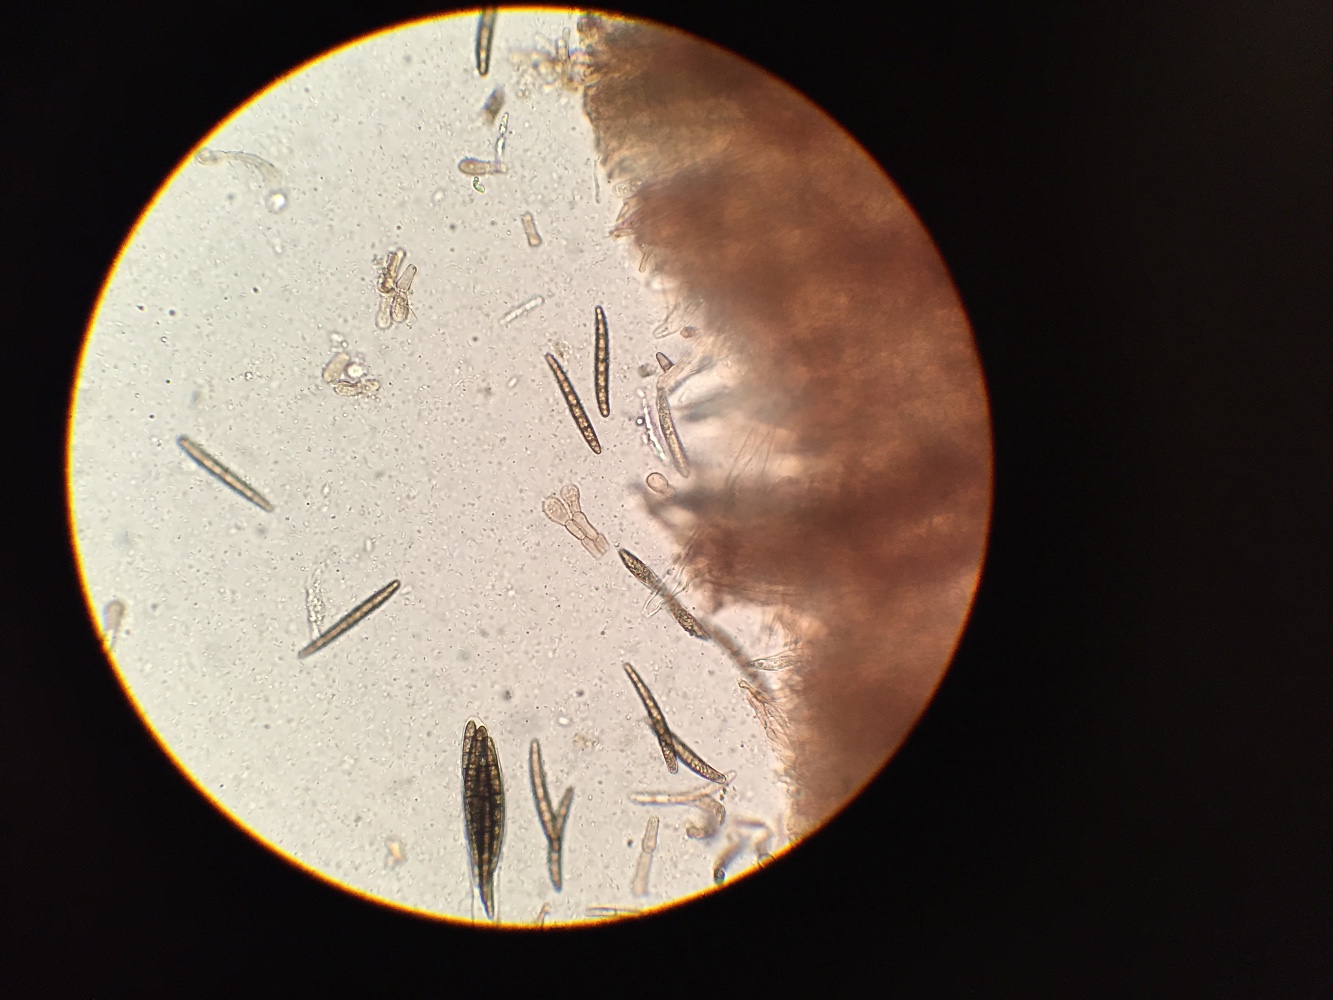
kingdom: Fungi
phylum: Ascomycota
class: Geoglossomycetes
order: Geoglossales
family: Geoglossaceae
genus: Geoglossum
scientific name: Geoglossum cookeianum
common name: bred jordtunge
